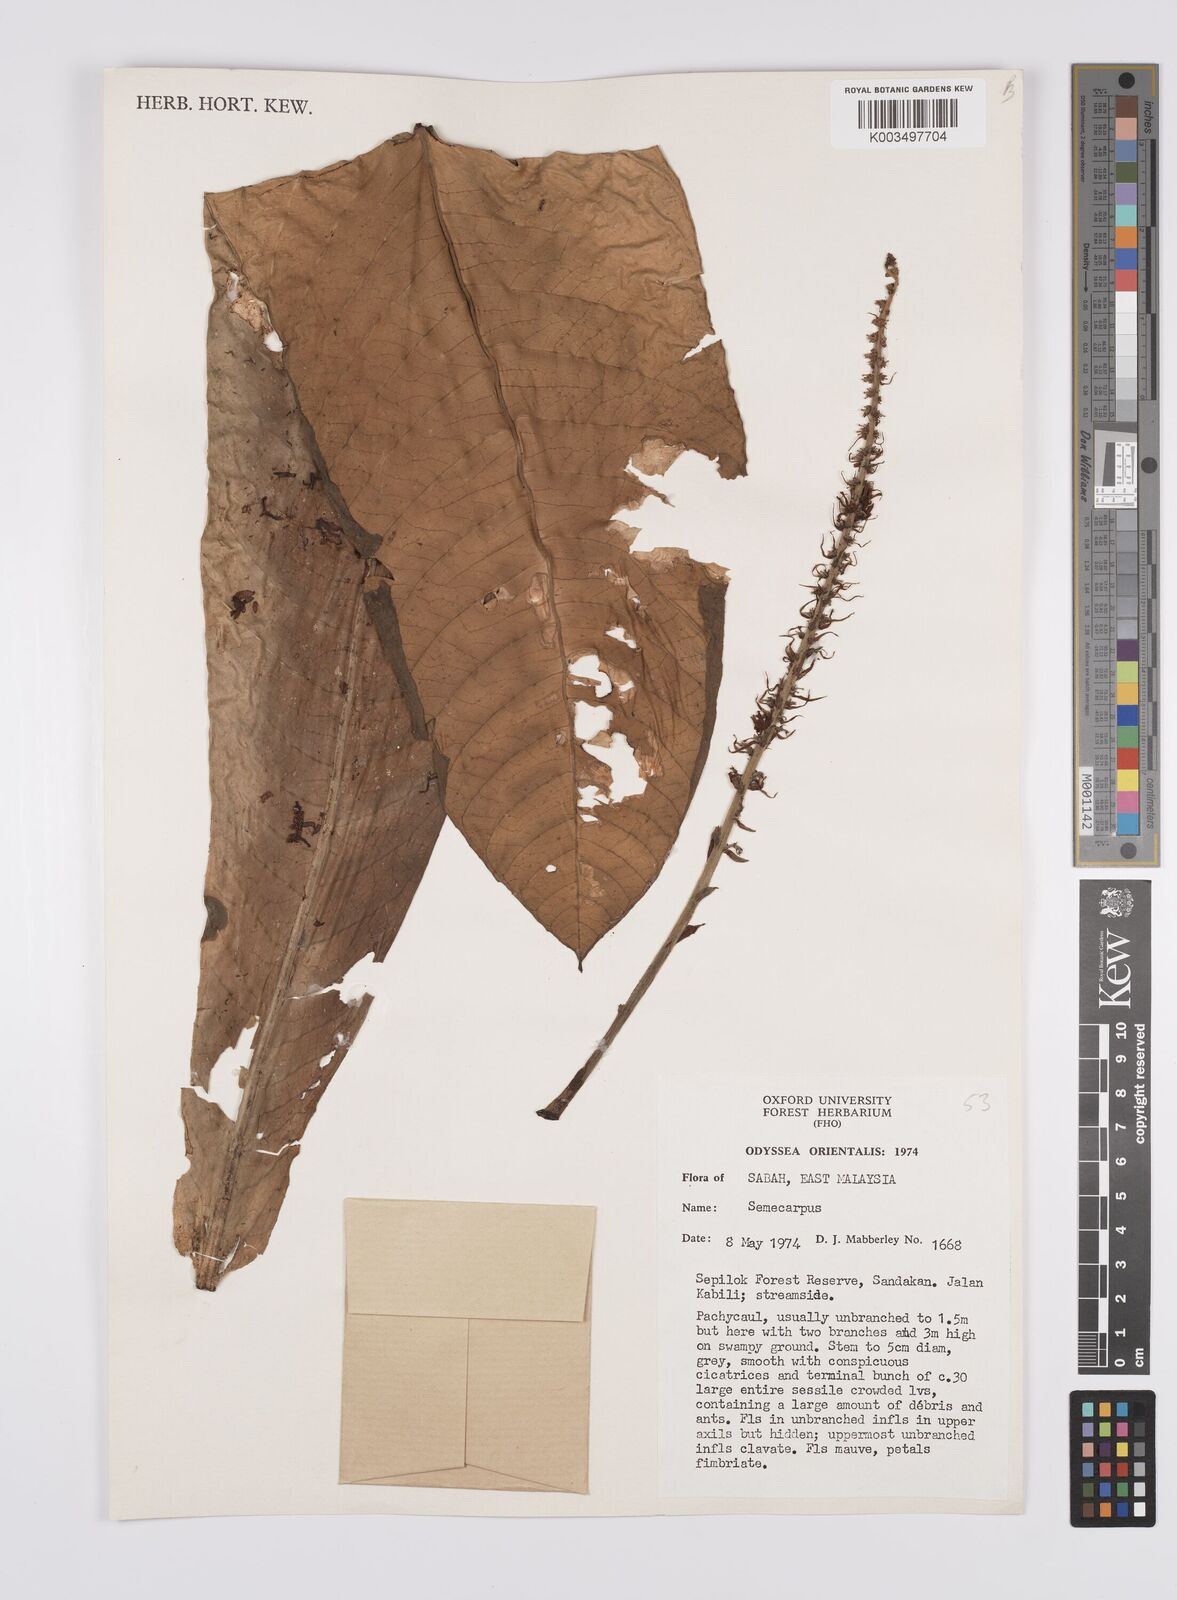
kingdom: Plantae
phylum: Tracheophyta
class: Magnoliopsida
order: Sapindales
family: Anacardiaceae
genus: Semecarpus
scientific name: Semecarpus
